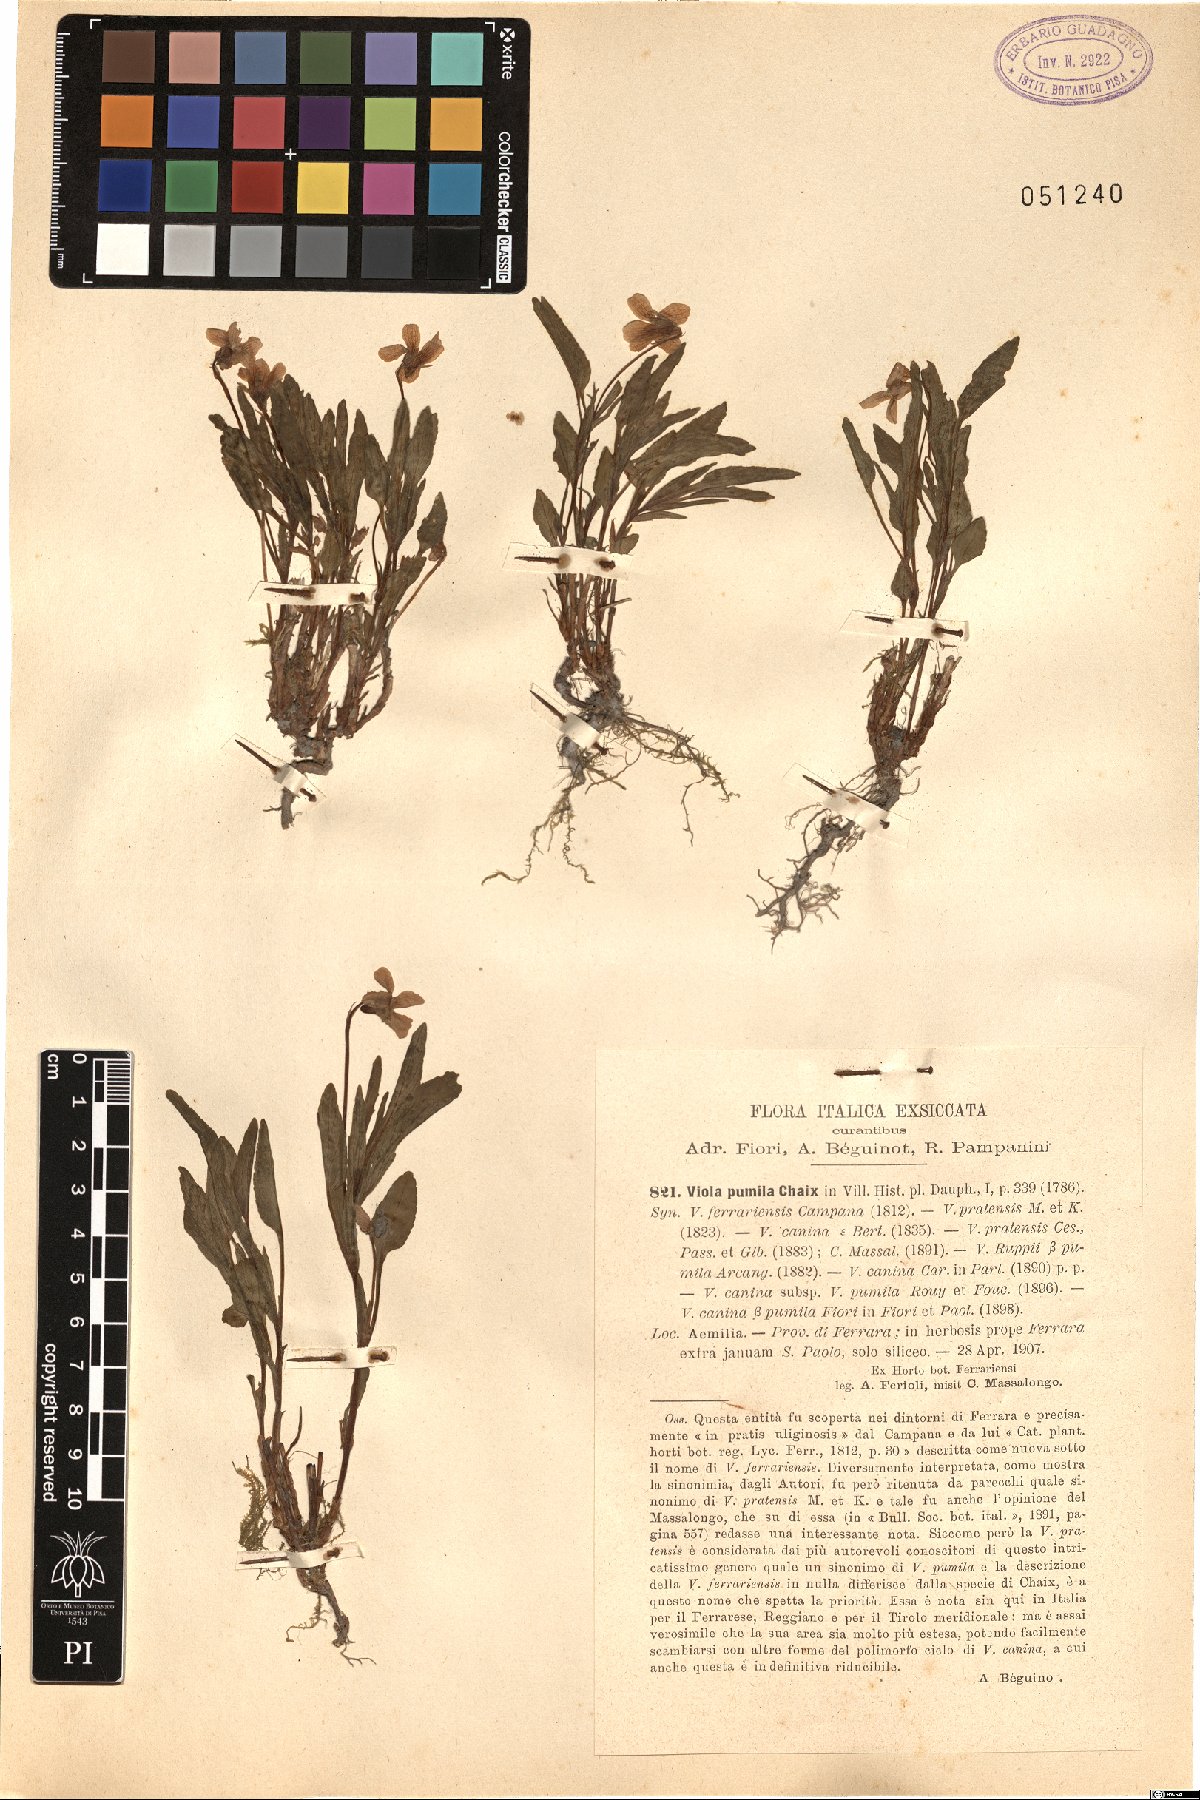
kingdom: Plantae
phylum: Tracheophyta
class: Magnoliopsida
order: Malpighiales
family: Violaceae
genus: Viola
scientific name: Viola pumila
